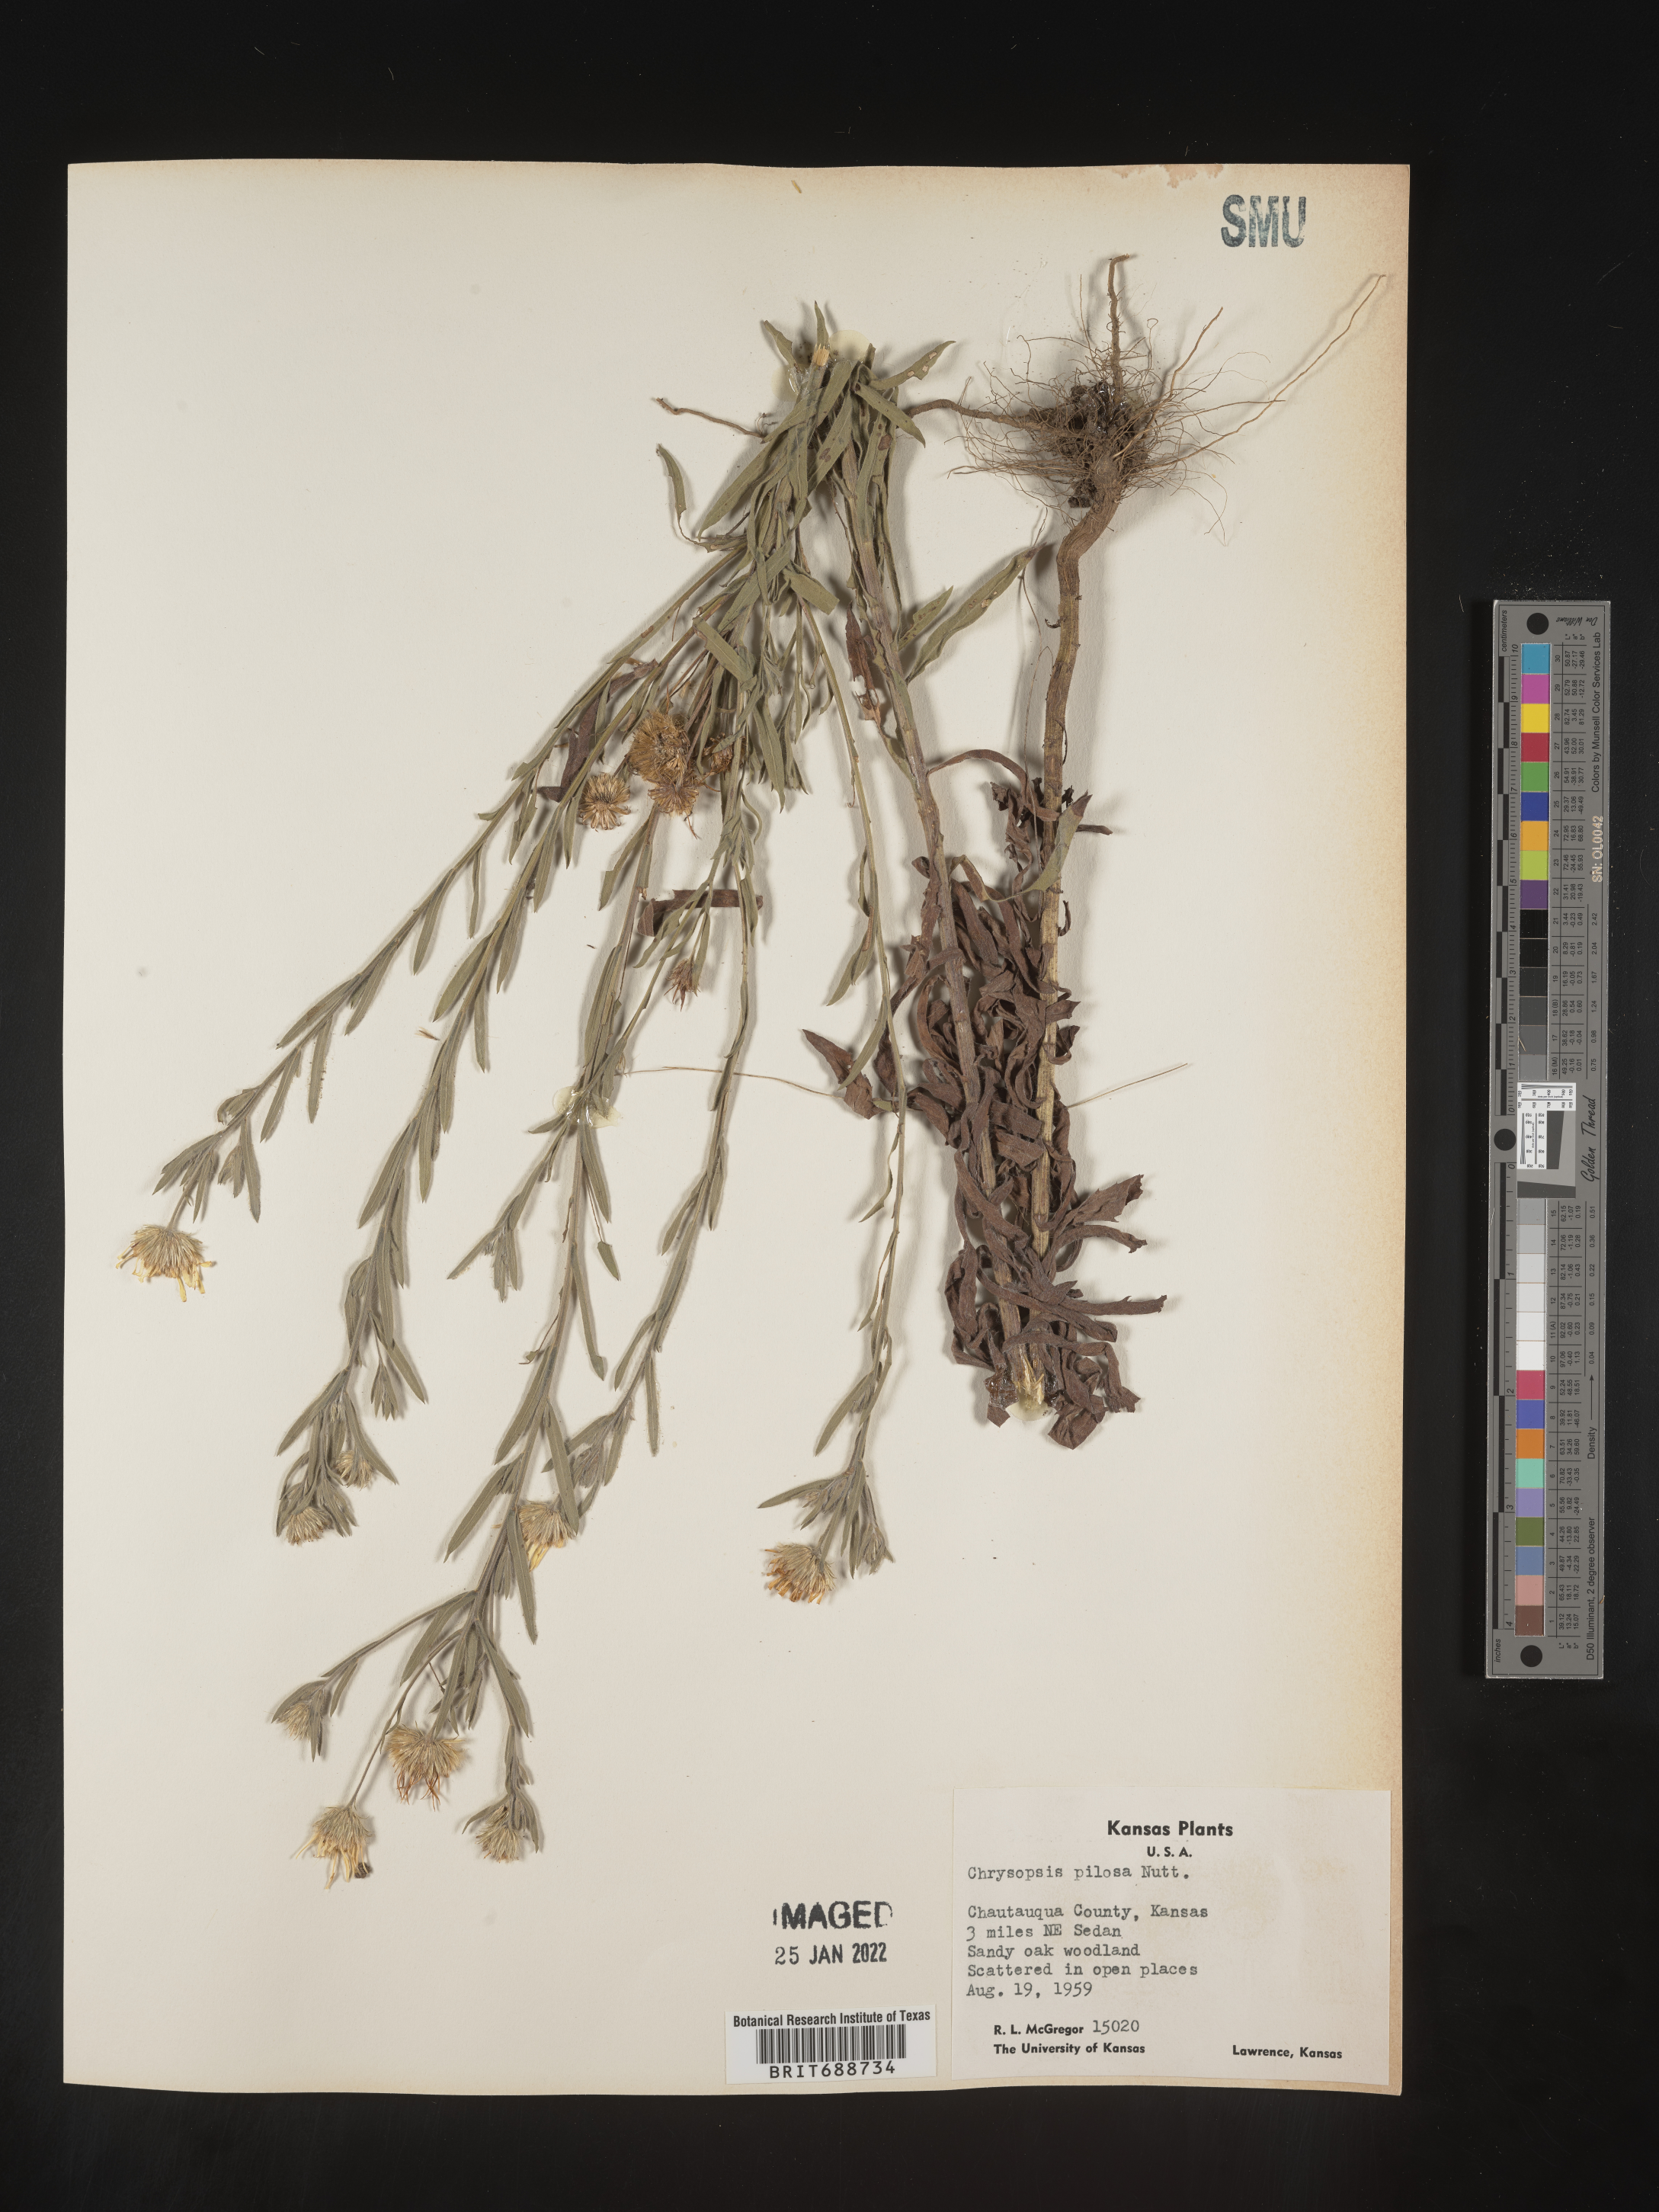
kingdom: Plantae
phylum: Tracheophyta
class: Magnoliopsida
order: Asterales
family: Asteraceae
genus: Bradburia
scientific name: Bradburia pilosa
